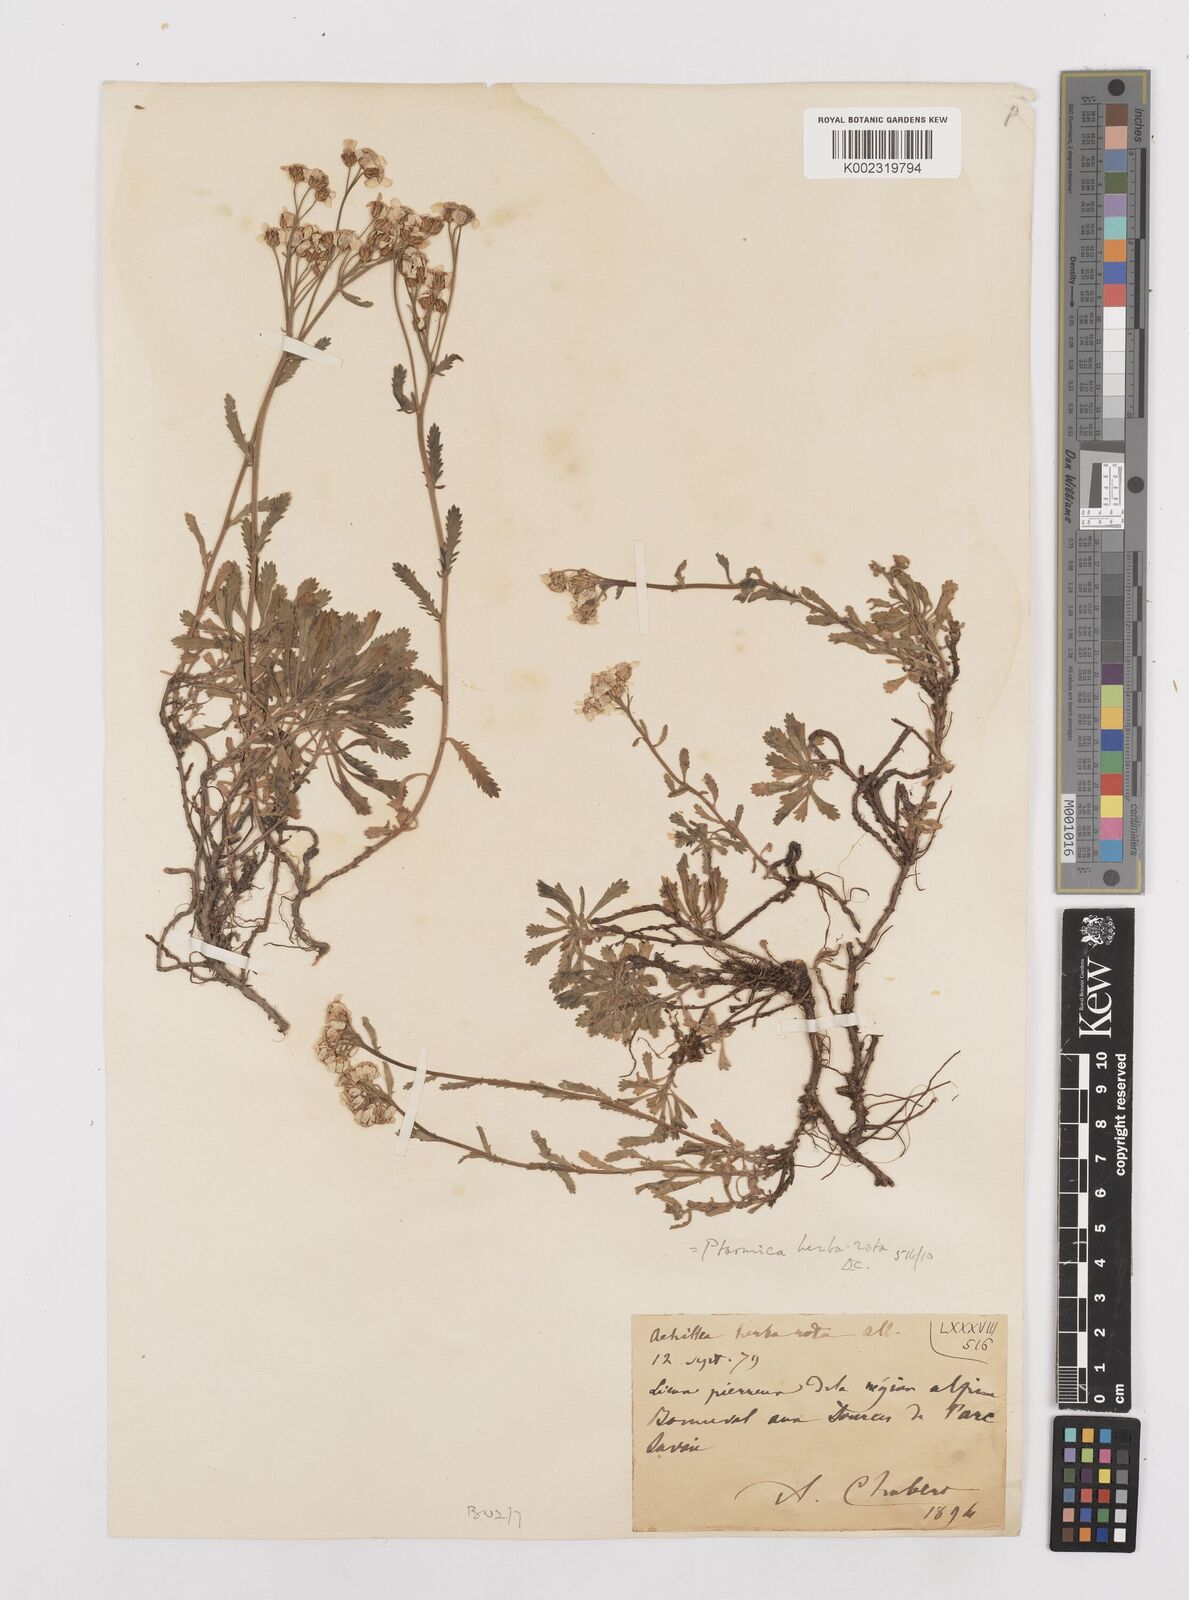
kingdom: Plantae
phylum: Tracheophyta
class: Magnoliopsida
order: Asterales
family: Asteraceae
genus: Achillea
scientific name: Achillea erba-rotta
